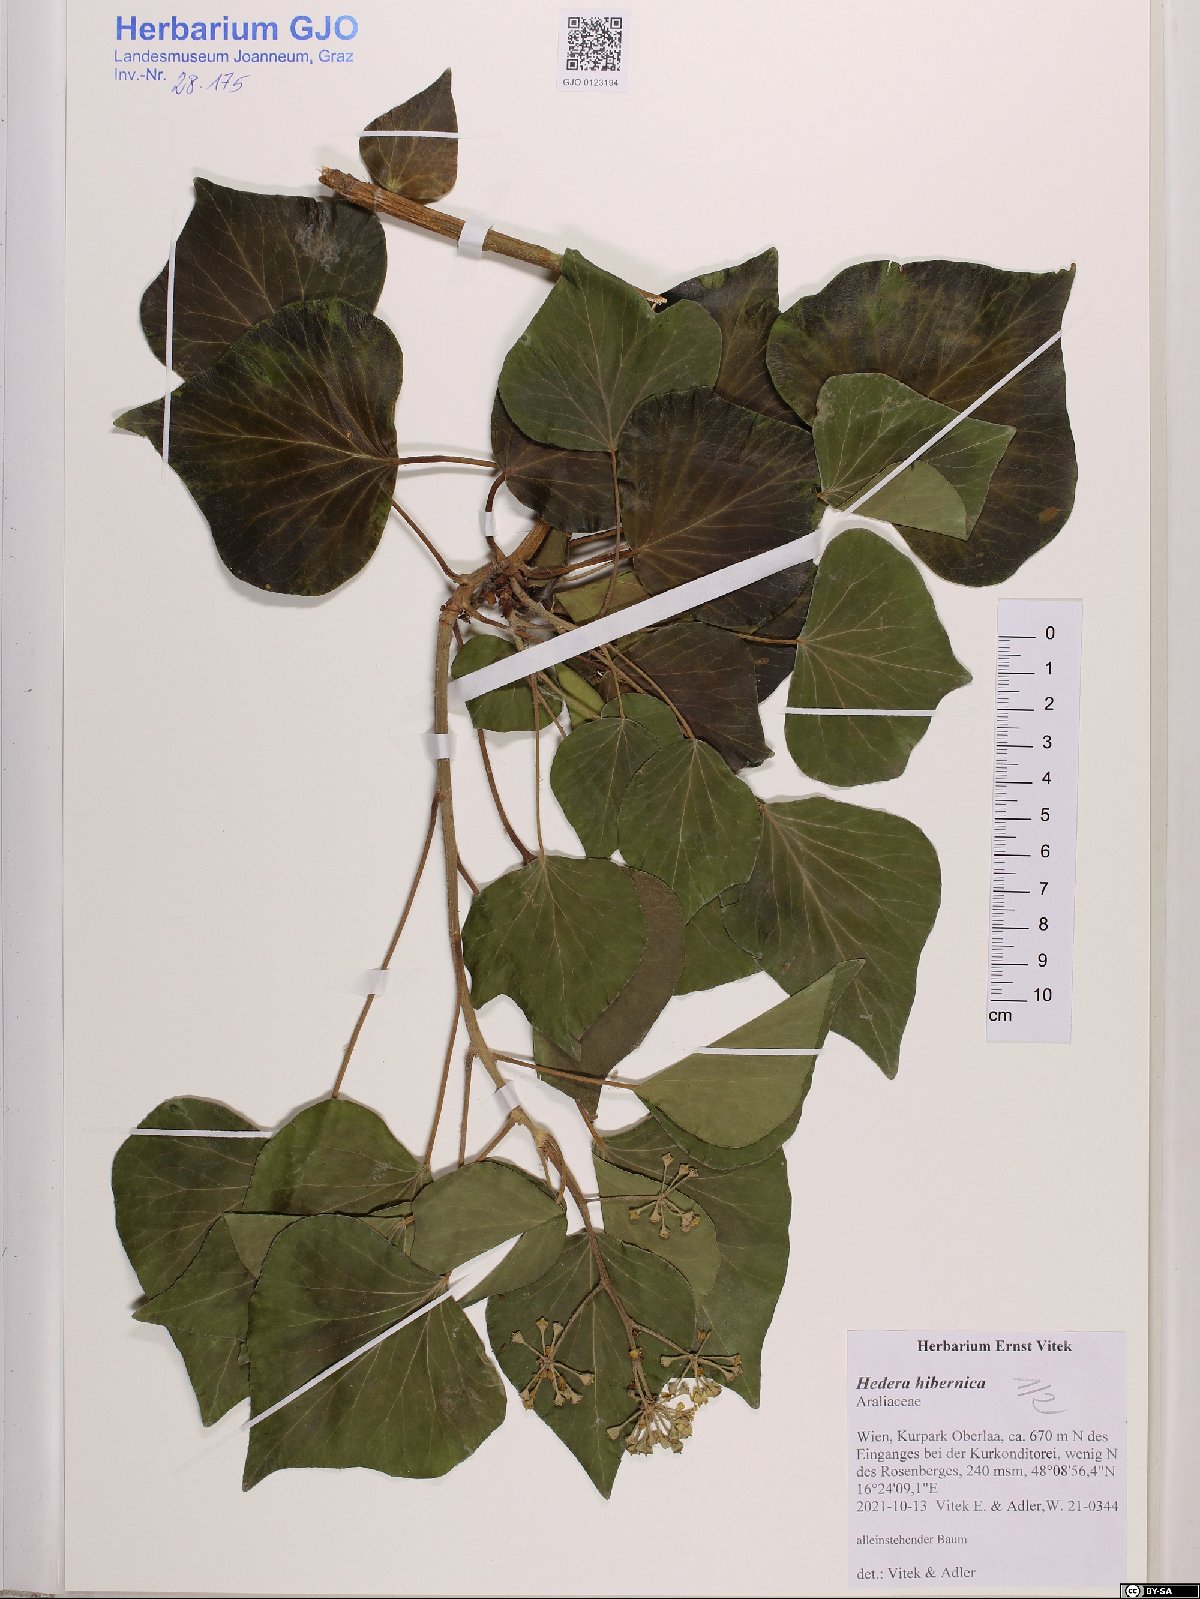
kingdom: Plantae
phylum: Tracheophyta
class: Magnoliopsida
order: Apiales
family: Araliaceae
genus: Hedera
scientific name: Hedera hibernica
